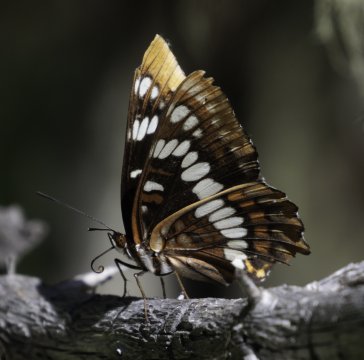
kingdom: Animalia
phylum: Arthropoda
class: Insecta
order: Lepidoptera
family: Nymphalidae
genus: Limenitis
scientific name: Limenitis lorquini
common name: Lorquin's Admiral
